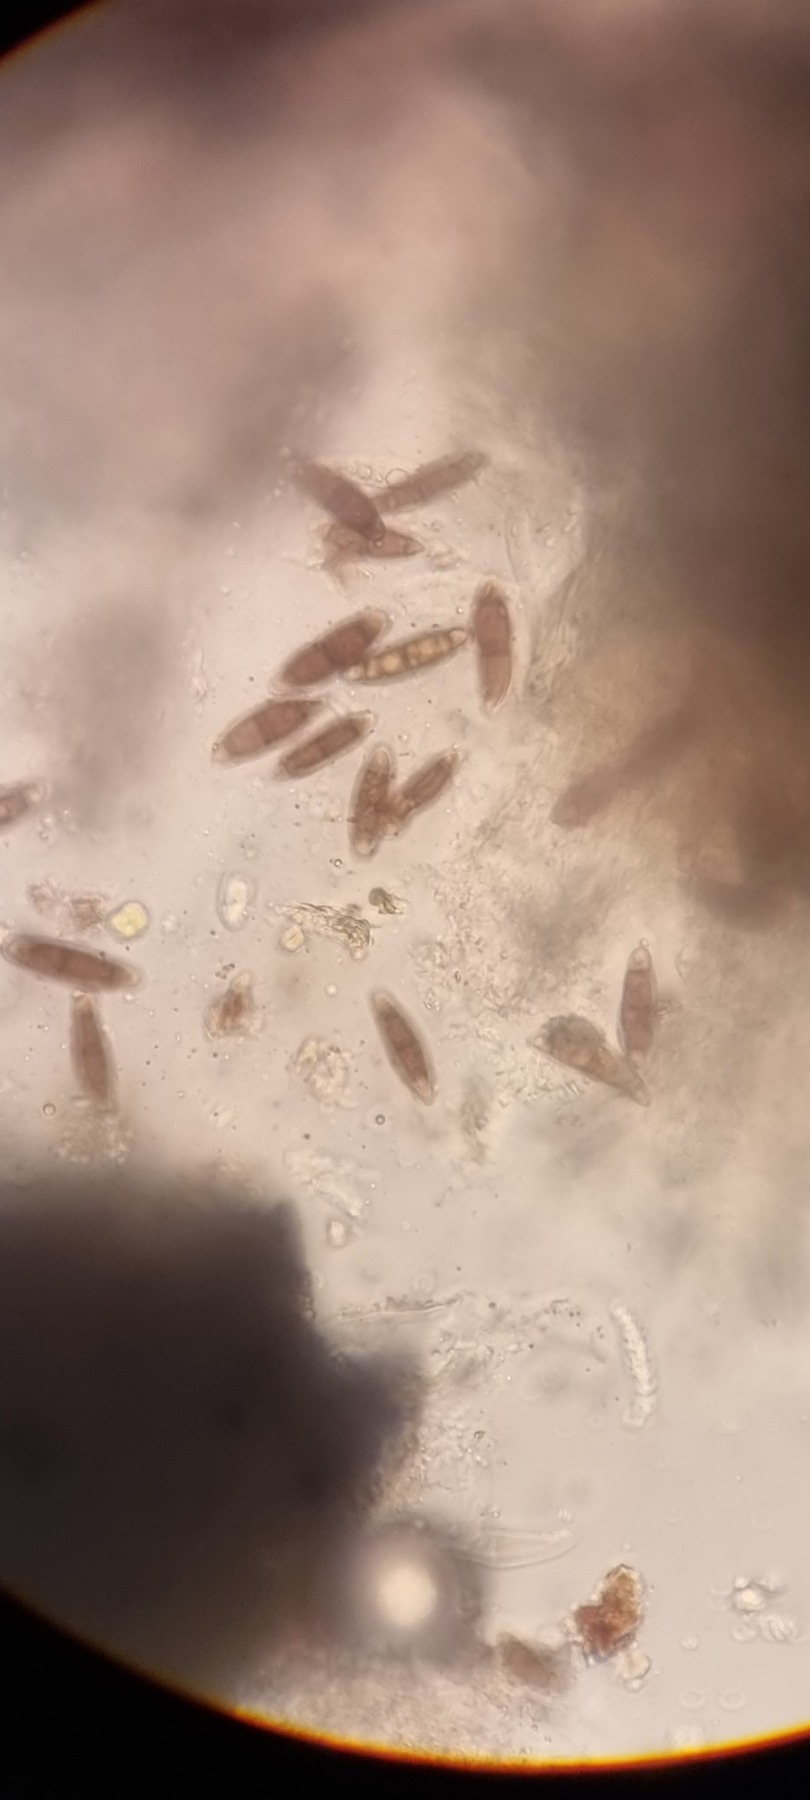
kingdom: Fungi
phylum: Ascomycota
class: Dothideomycetes
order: Hysteriales
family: Hysteriaceae
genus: Hysterium
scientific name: Hysterium pulicare
